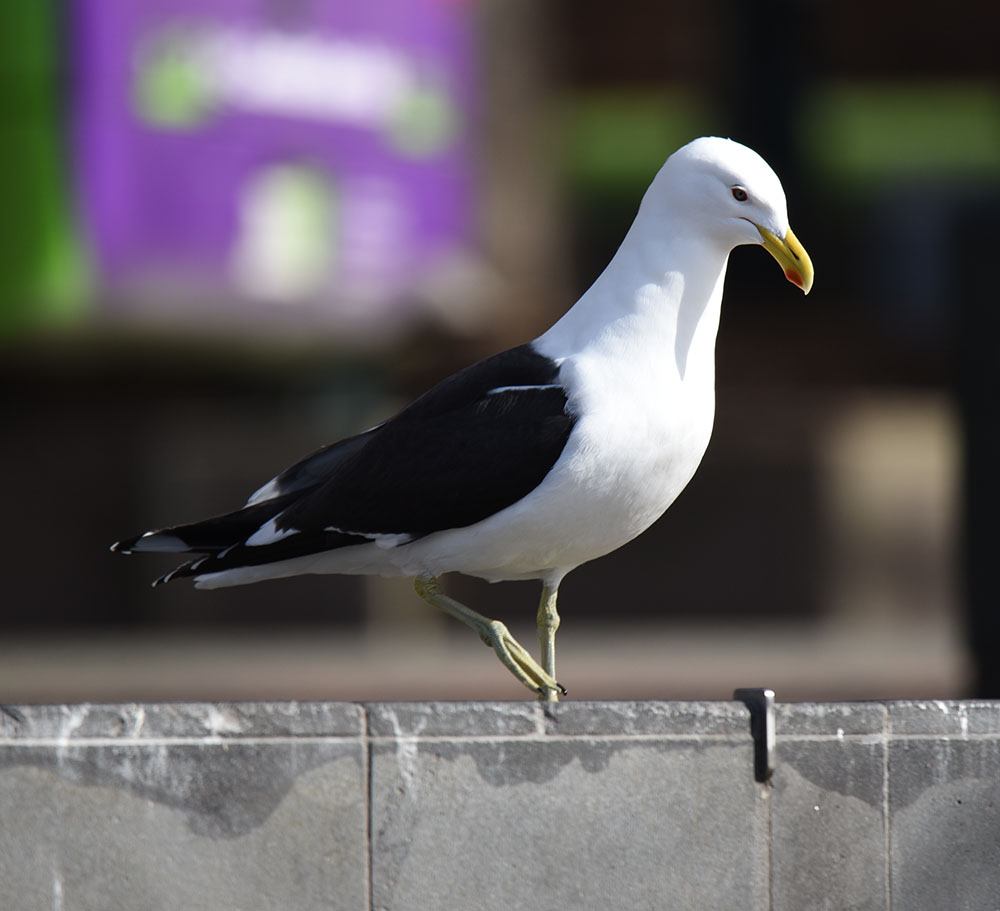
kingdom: Animalia
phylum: Chordata
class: Aves
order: Charadriiformes
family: Laridae
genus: Larus
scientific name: Larus dominicanus
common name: Kelp gull
